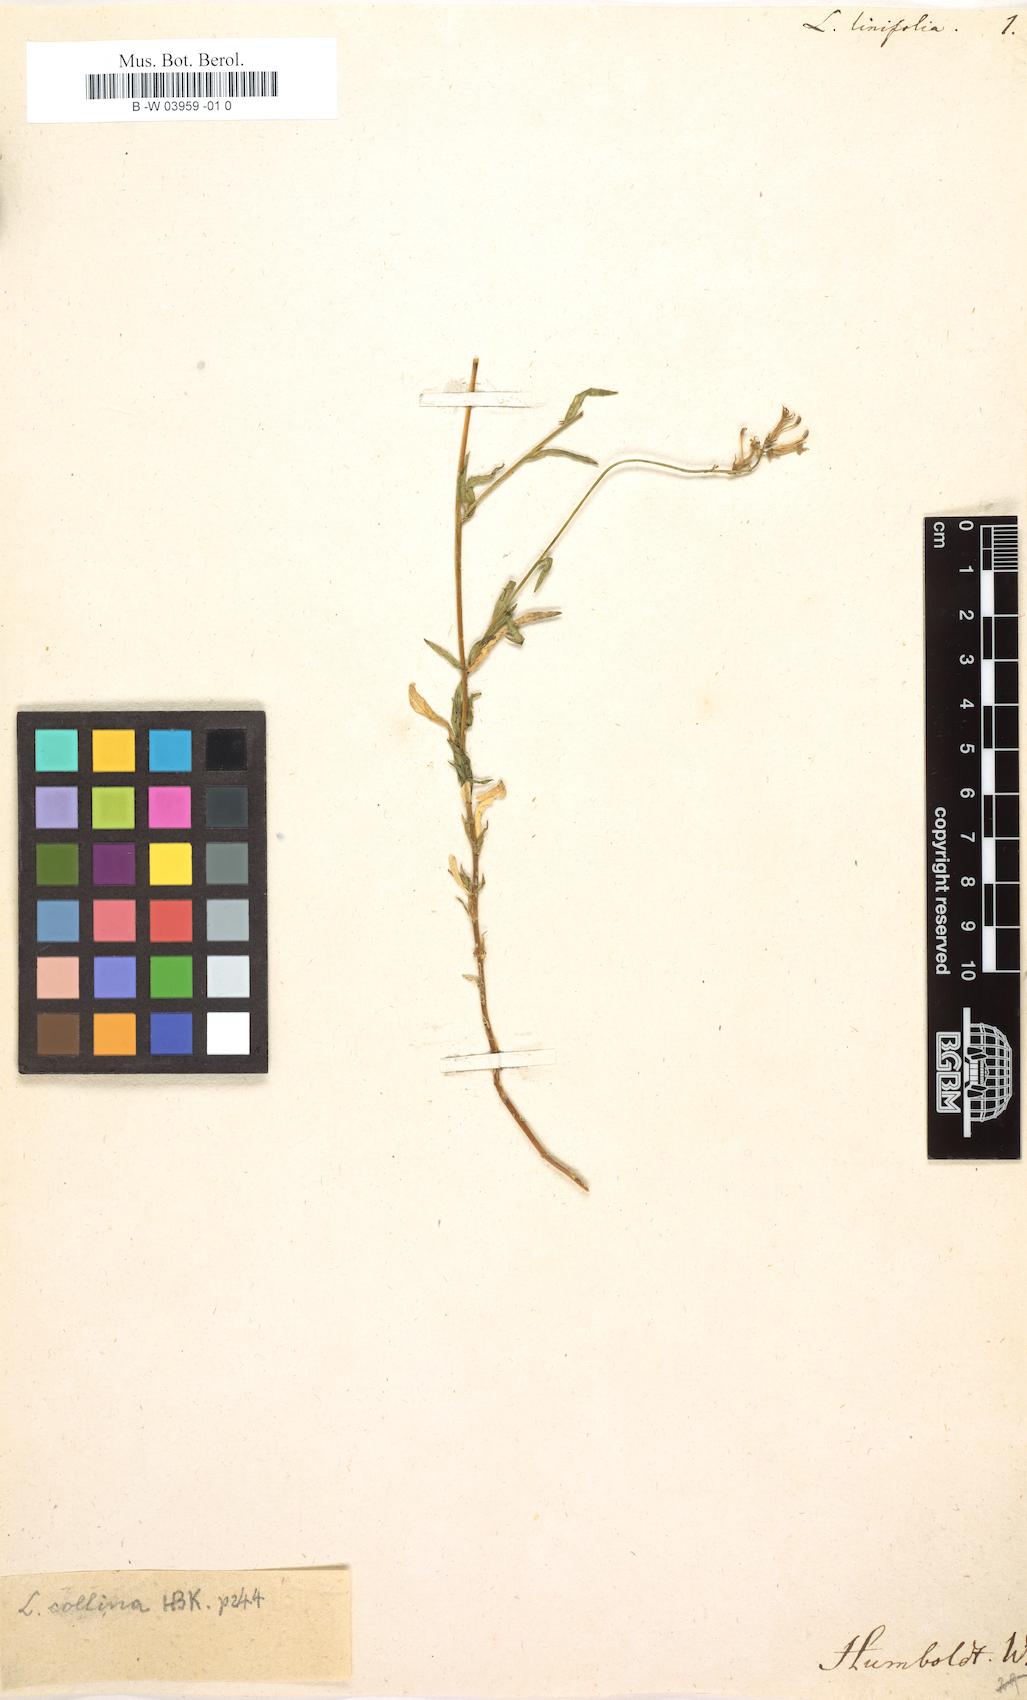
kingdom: Plantae
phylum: Tracheophyta
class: Magnoliopsida
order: Asterales
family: Campanulaceae
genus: Lobelia
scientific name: Lobelia collina
